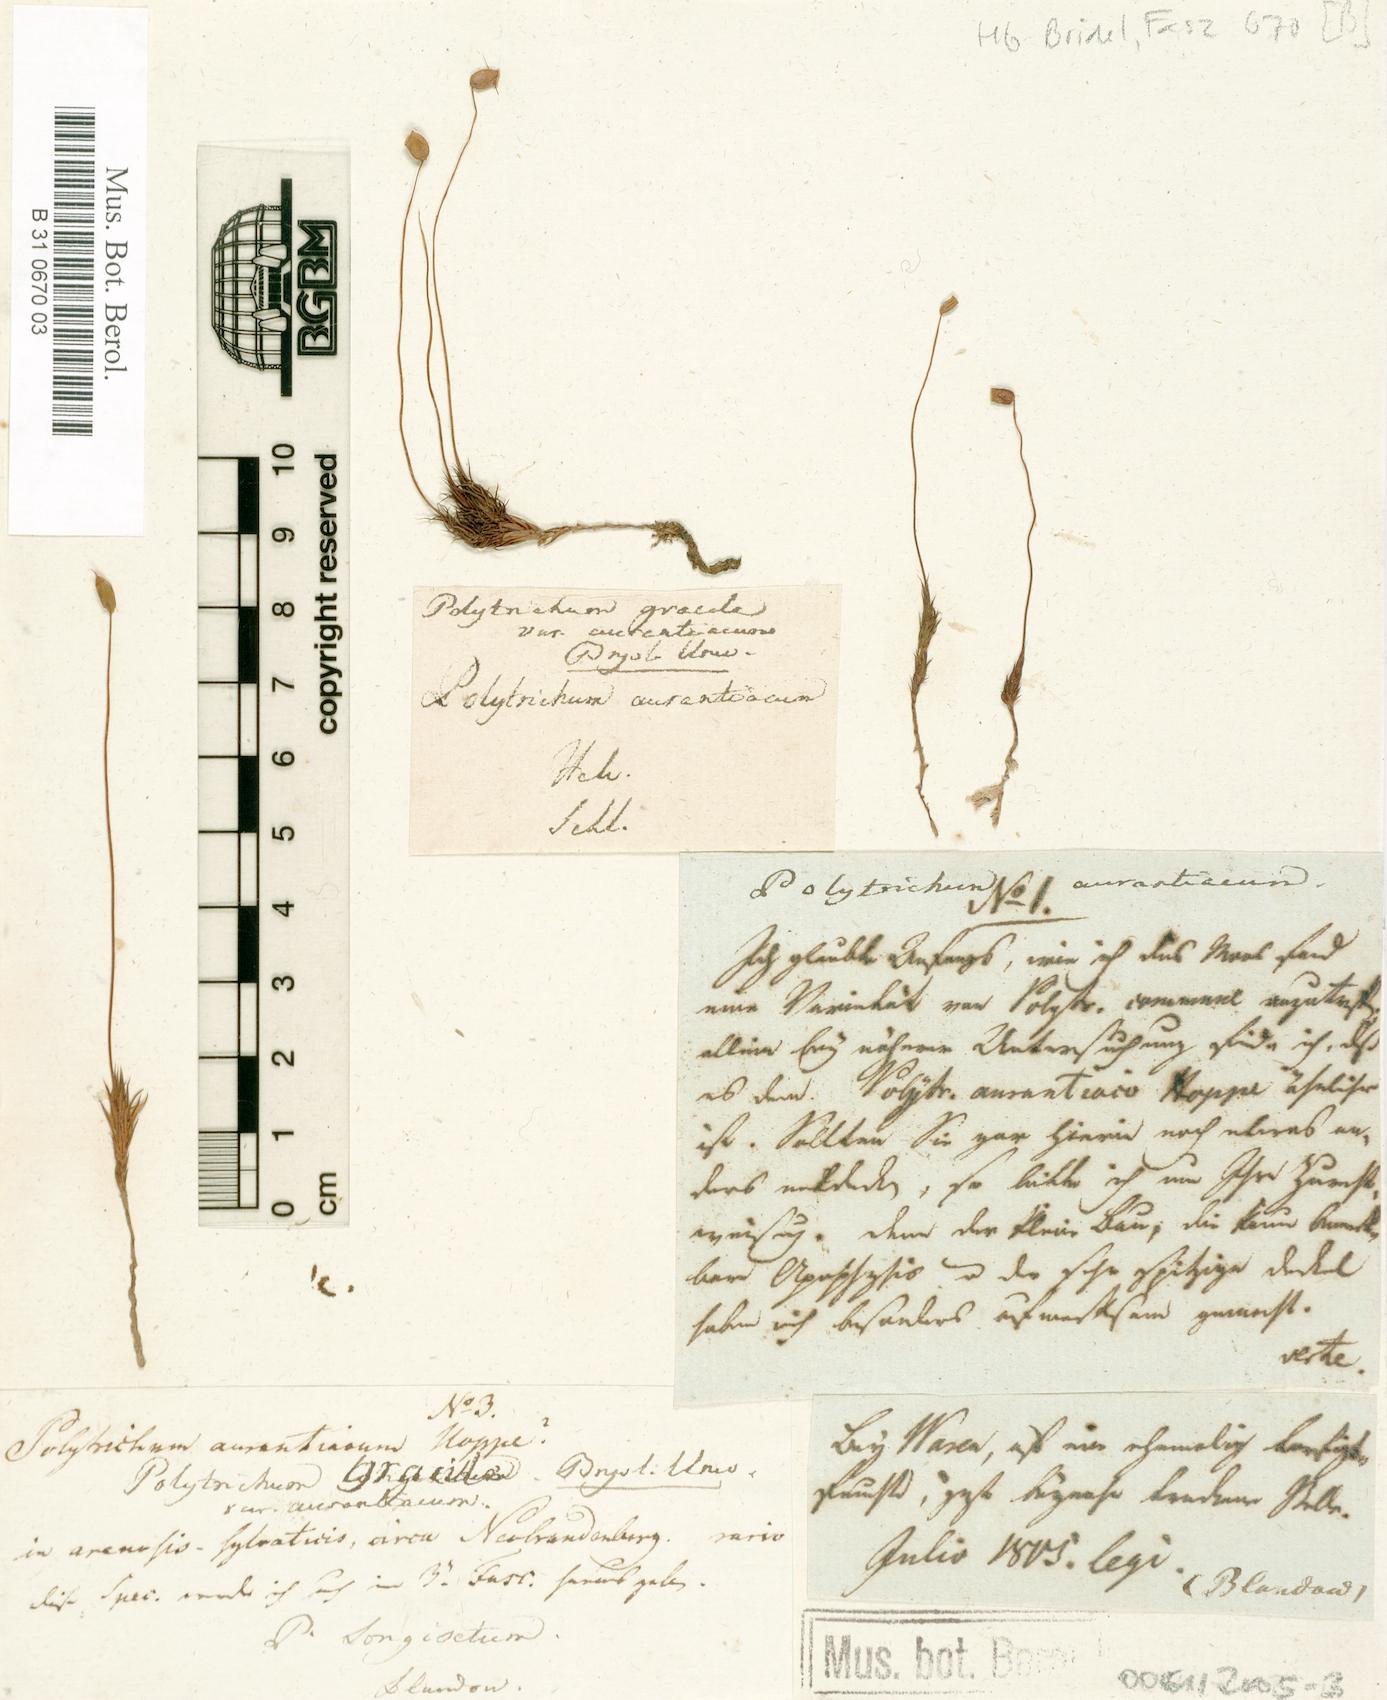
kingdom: Plantae
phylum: Bryophyta
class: Polytrichopsida
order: Polytrichales
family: Polytrichaceae
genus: Polytrichum
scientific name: Polytrichum longisetum
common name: Long-stalked haircap moss
